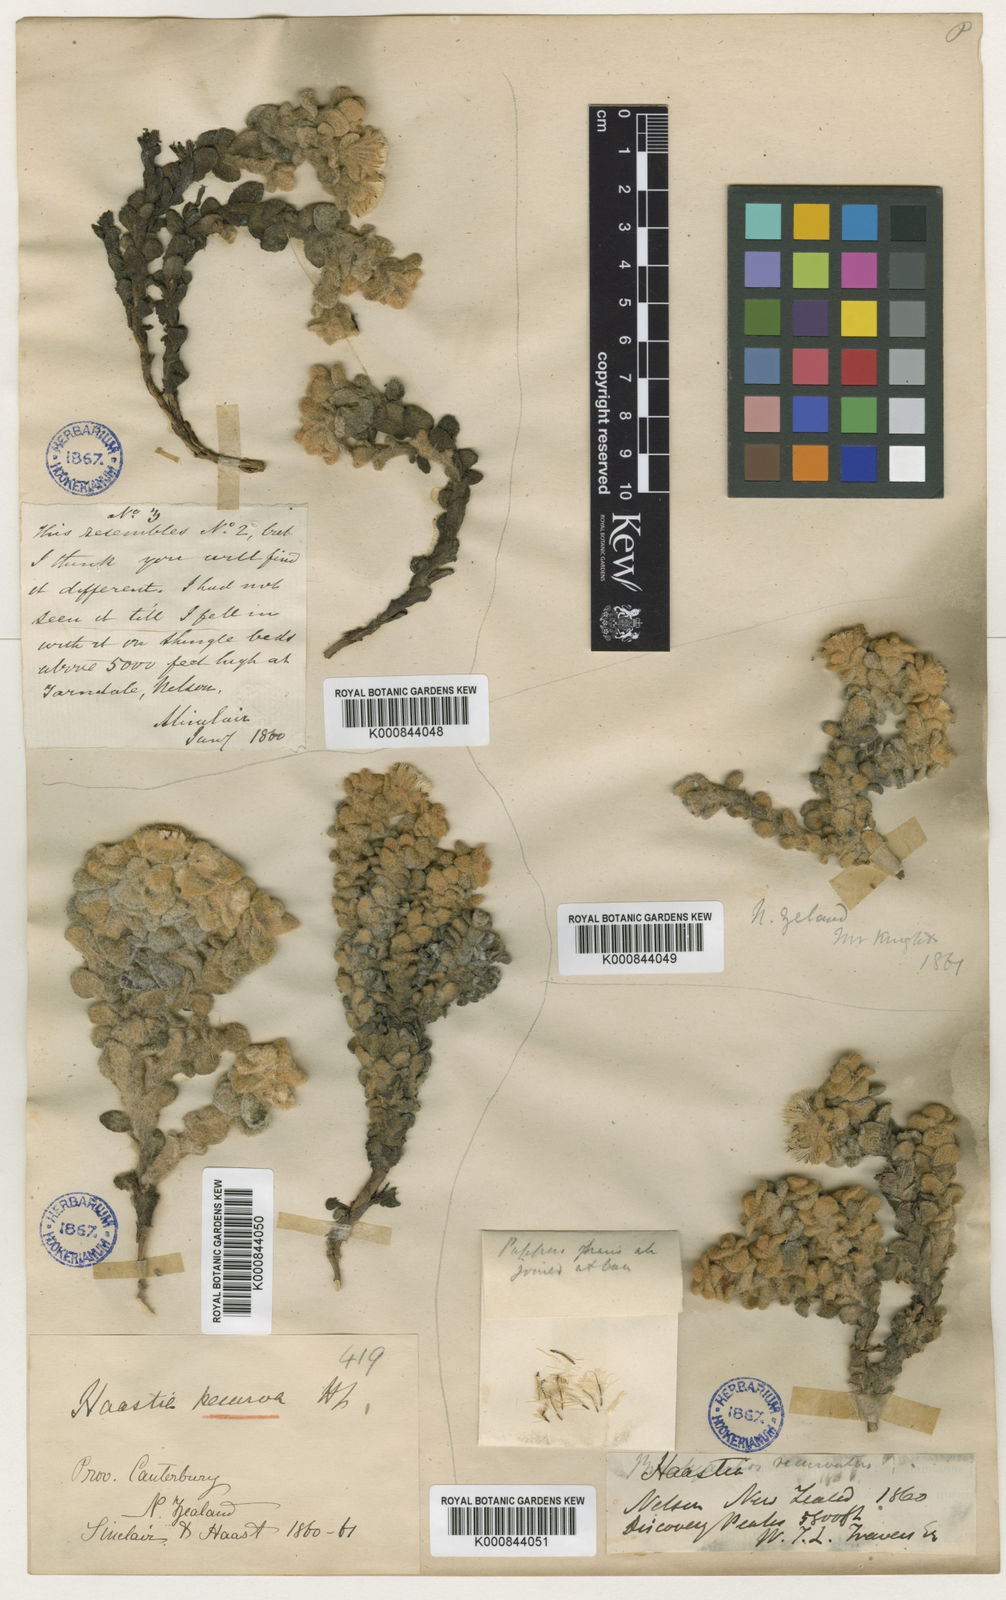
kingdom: Plantae
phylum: Tracheophyta
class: Magnoliopsida
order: Asterales
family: Asteraceae
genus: Haastia
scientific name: Haastia recurva
